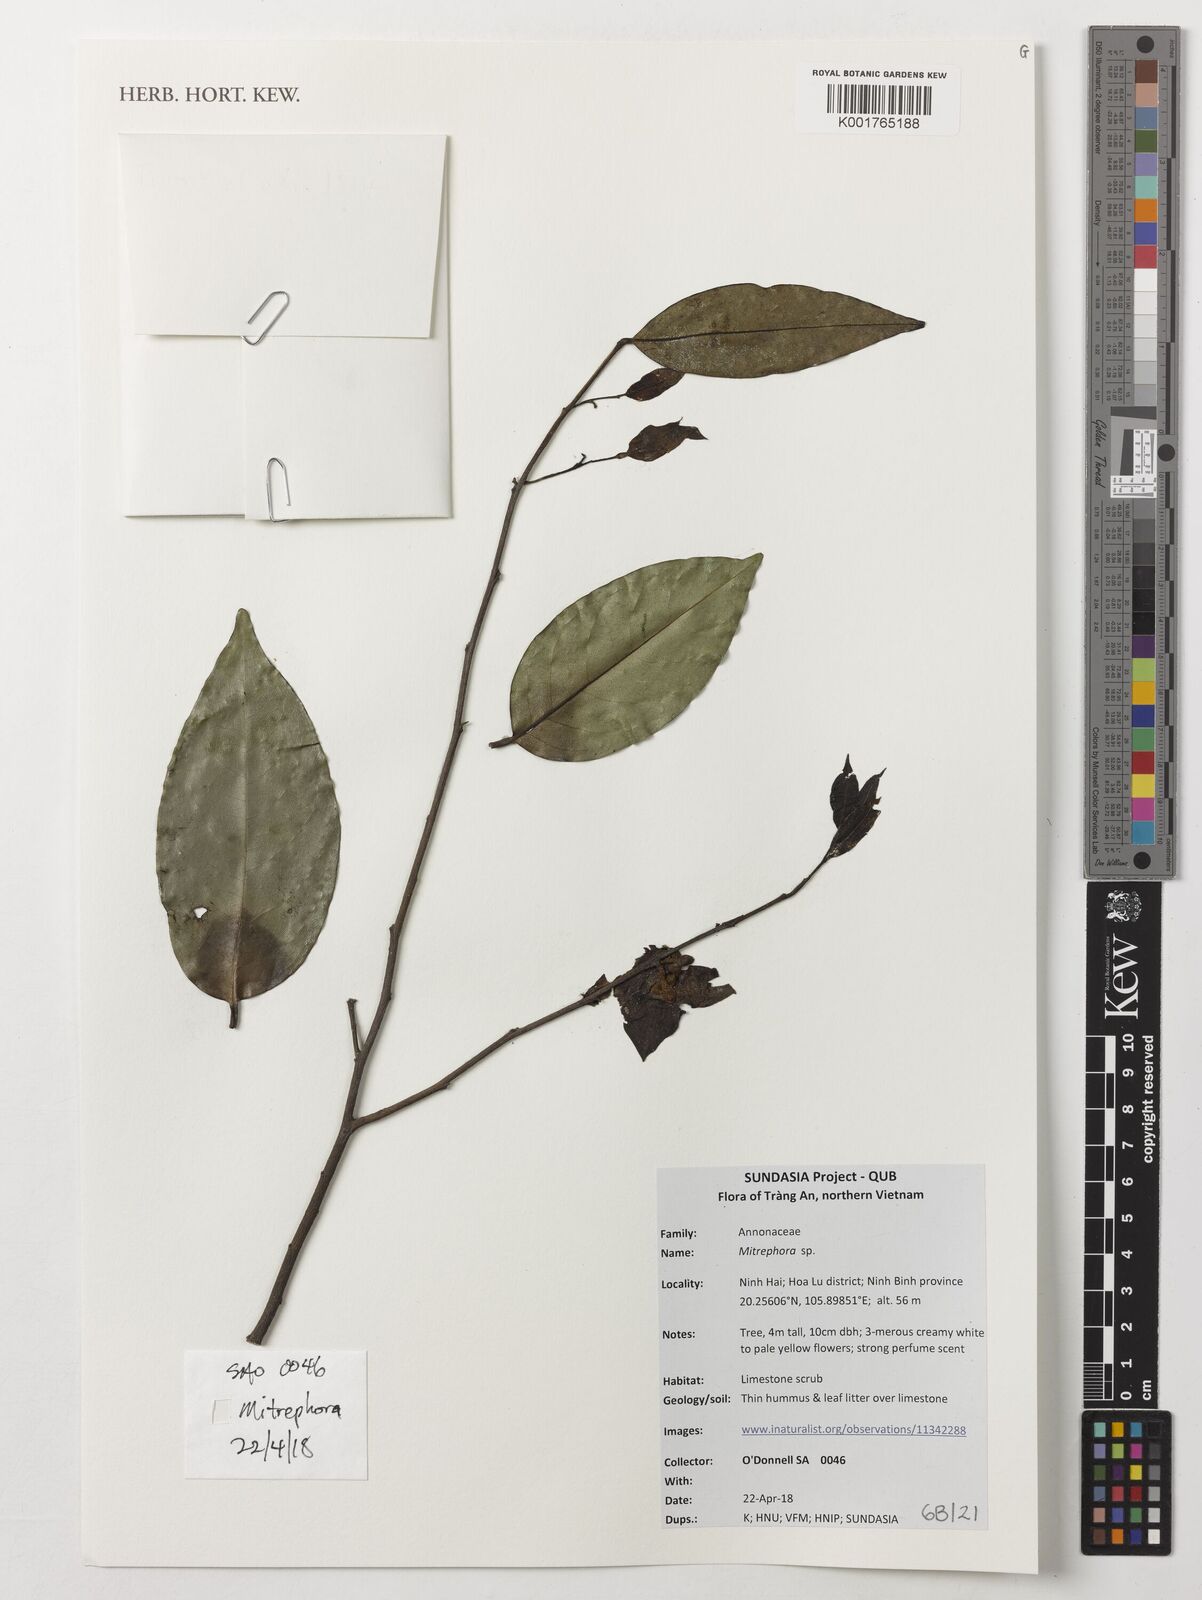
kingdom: Plantae
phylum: Tracheophyta
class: Magnoliopsida
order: Magnoliales
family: Annonaceae
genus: Mitrephora
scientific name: Mitrephora
